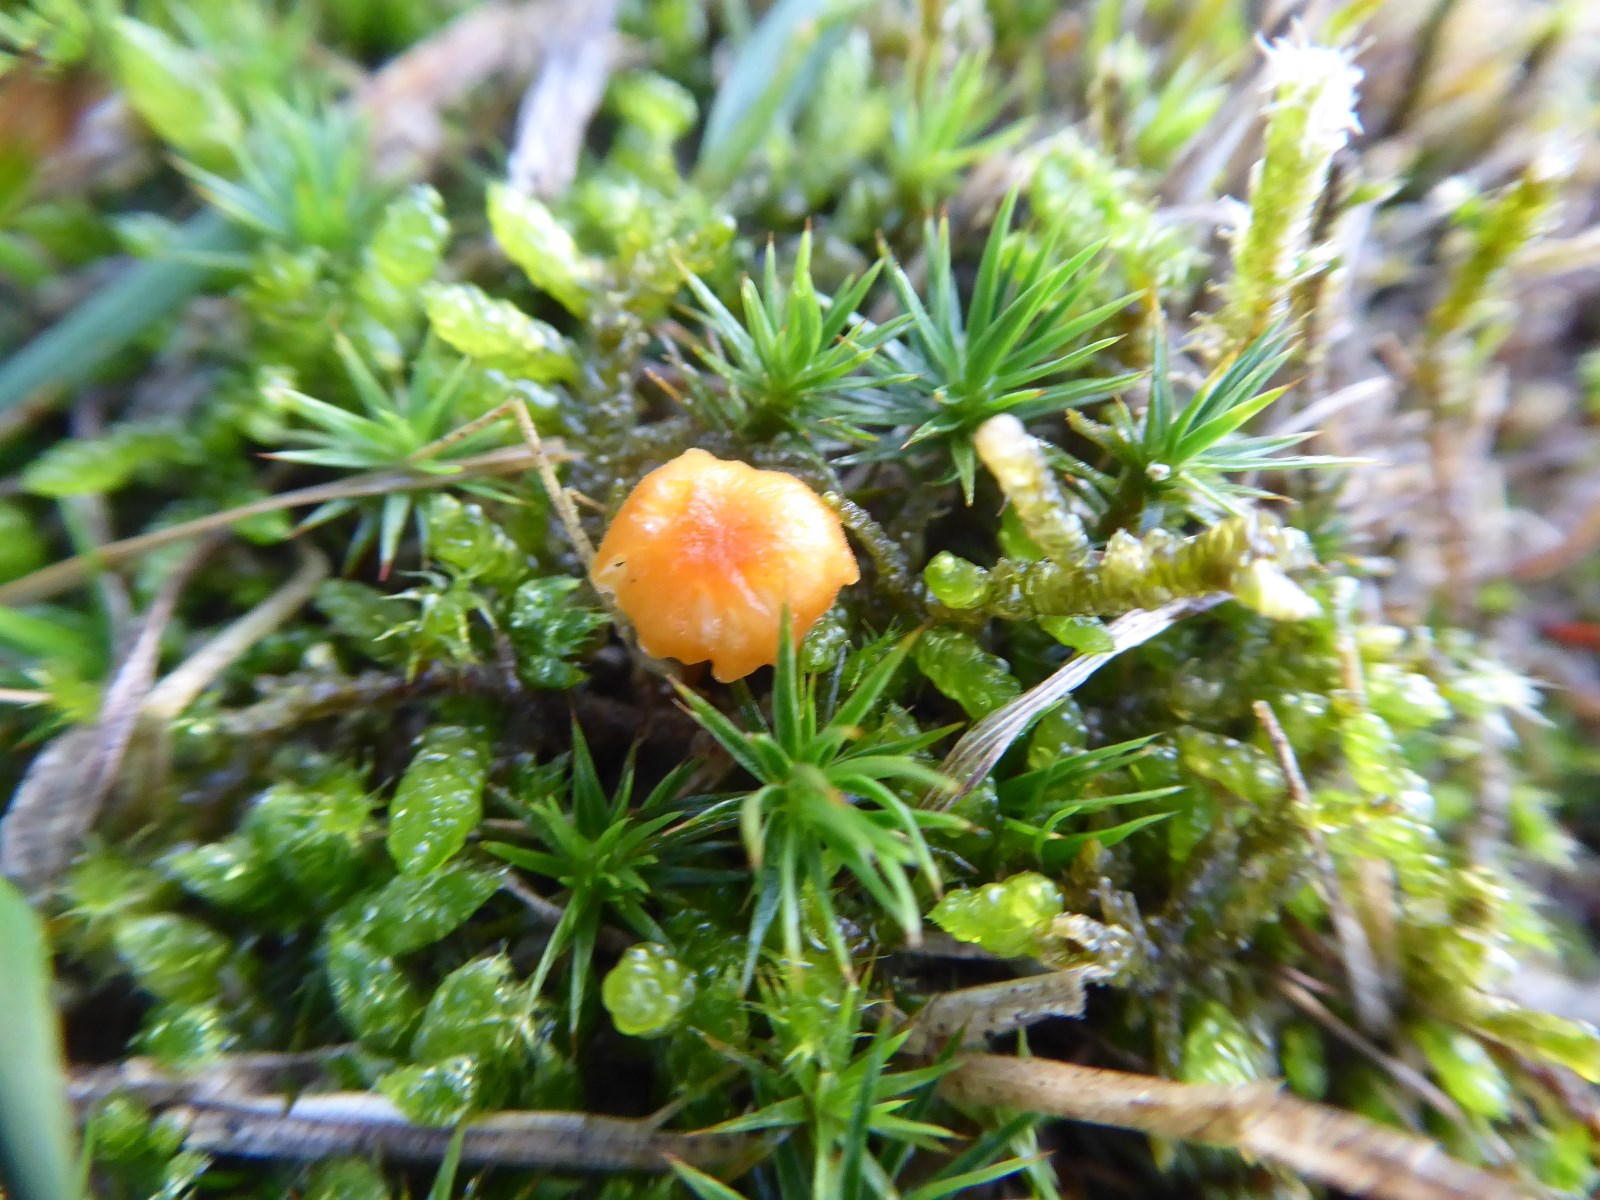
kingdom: Fungi
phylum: Basidiomycota
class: Agaricomycetes
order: Hymenochaetales
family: Rickenellaceae
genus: Rickenella
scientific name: Rickenella fibula
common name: orange mosnavlehat
